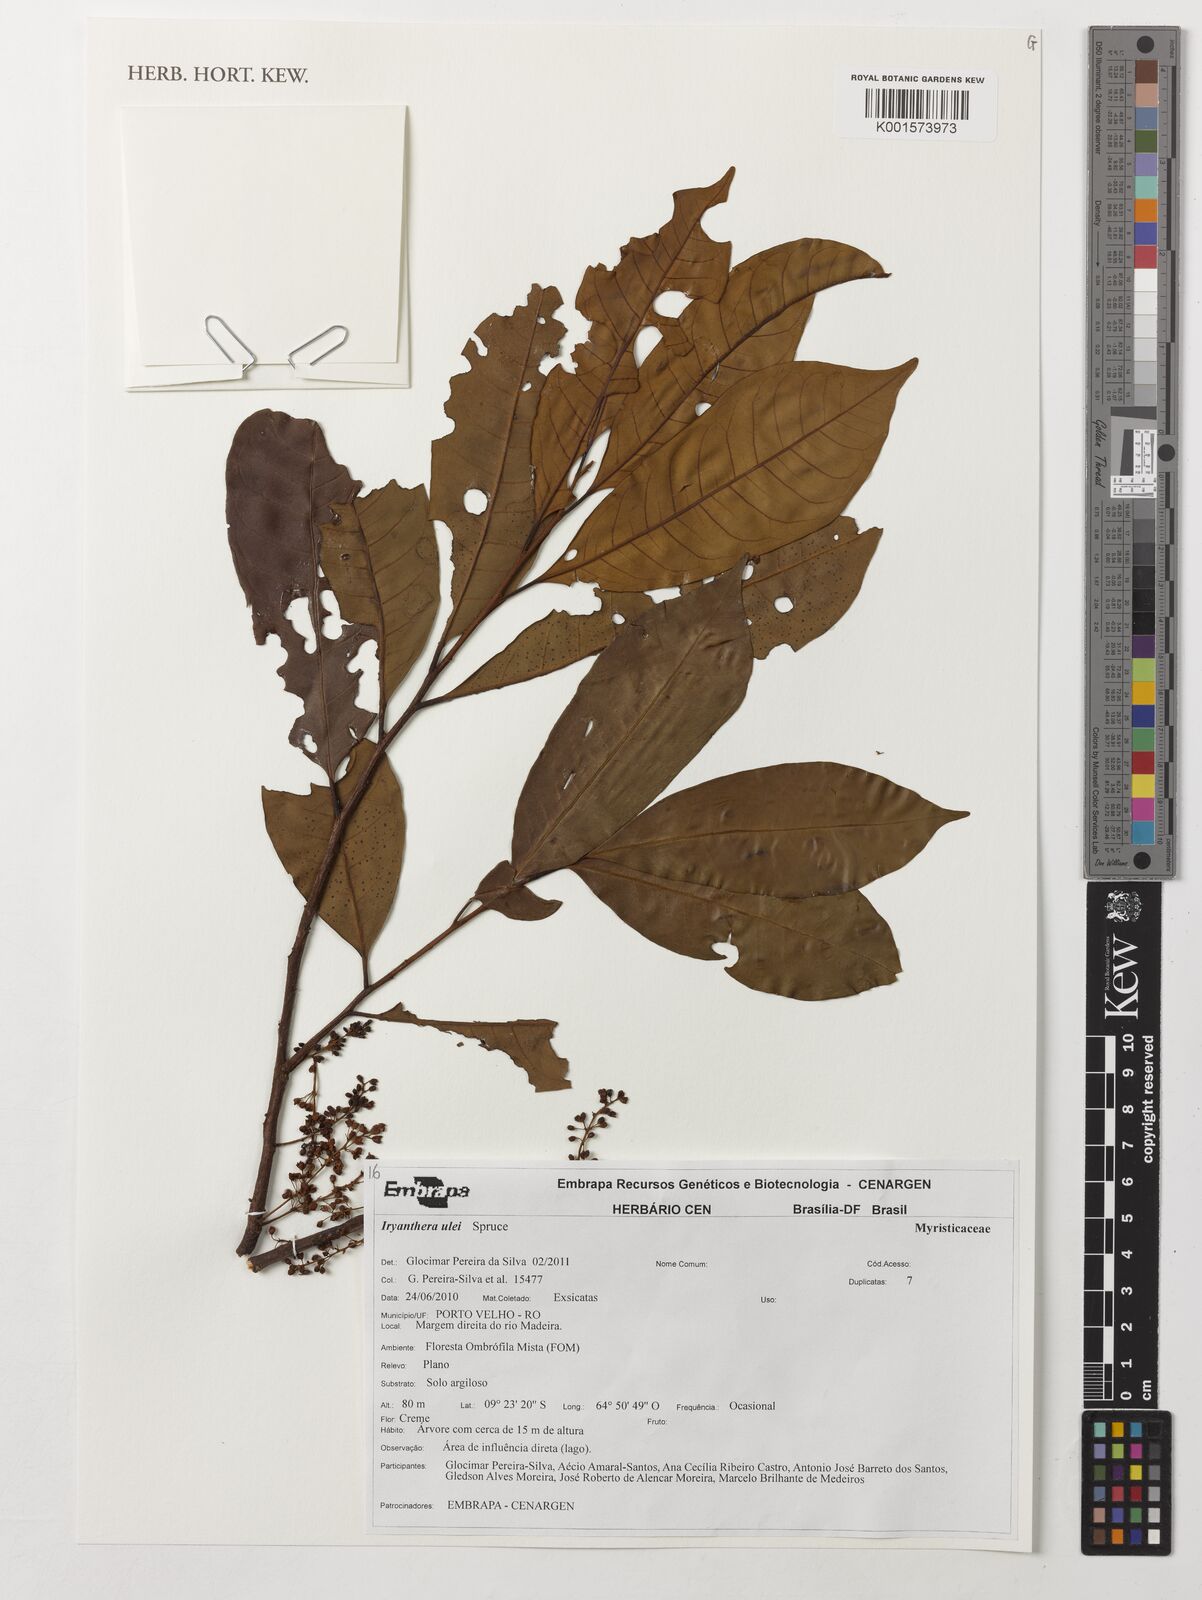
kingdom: Plantae
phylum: Tracheophyta
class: Magnoliopsida
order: Magnoliales
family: Myristicaceae
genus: Iryanthera
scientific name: Iryanthera ulei
